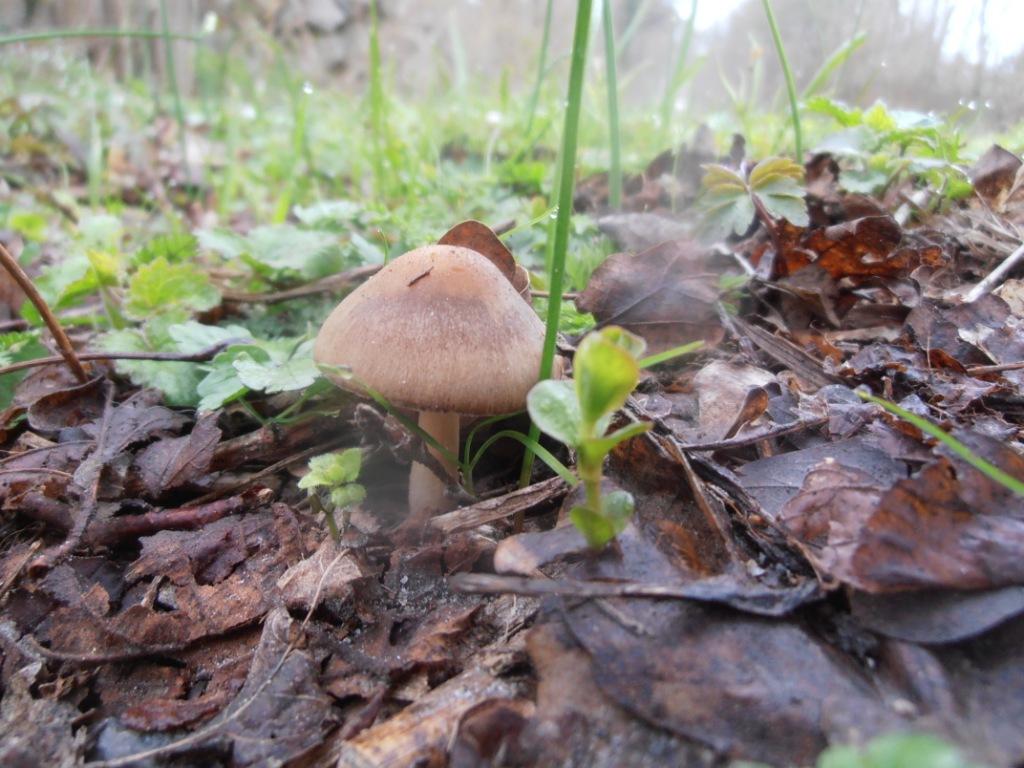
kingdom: Fungi
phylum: Basidiomycota
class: Agaricomycetes
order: Agaricales
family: Psathyrellaceae
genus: Psathyrella
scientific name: Psathyrella spadiceogrisea
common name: gråbrun mørkhat
